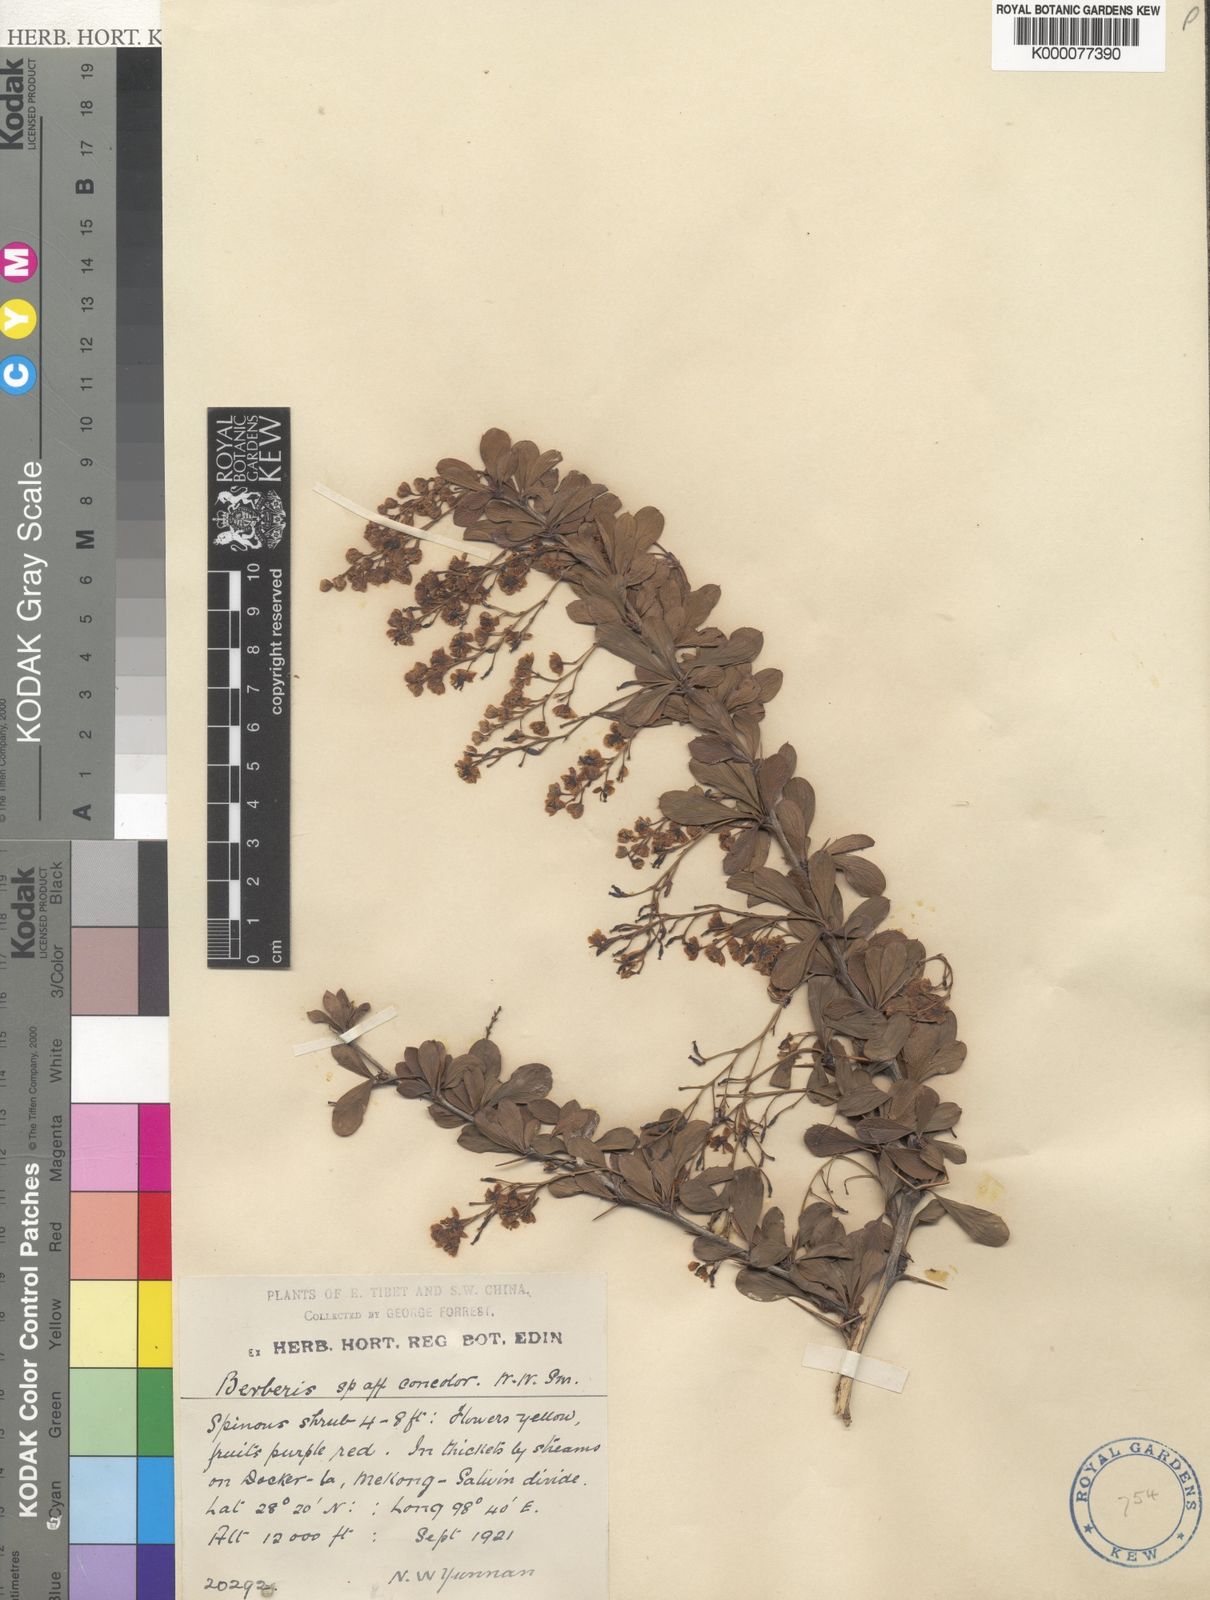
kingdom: Plantae
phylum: Tracheophyta
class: Magnoliopsida
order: Ranunculales
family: Berberidaceae
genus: Berberis
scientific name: Berberis concolor
